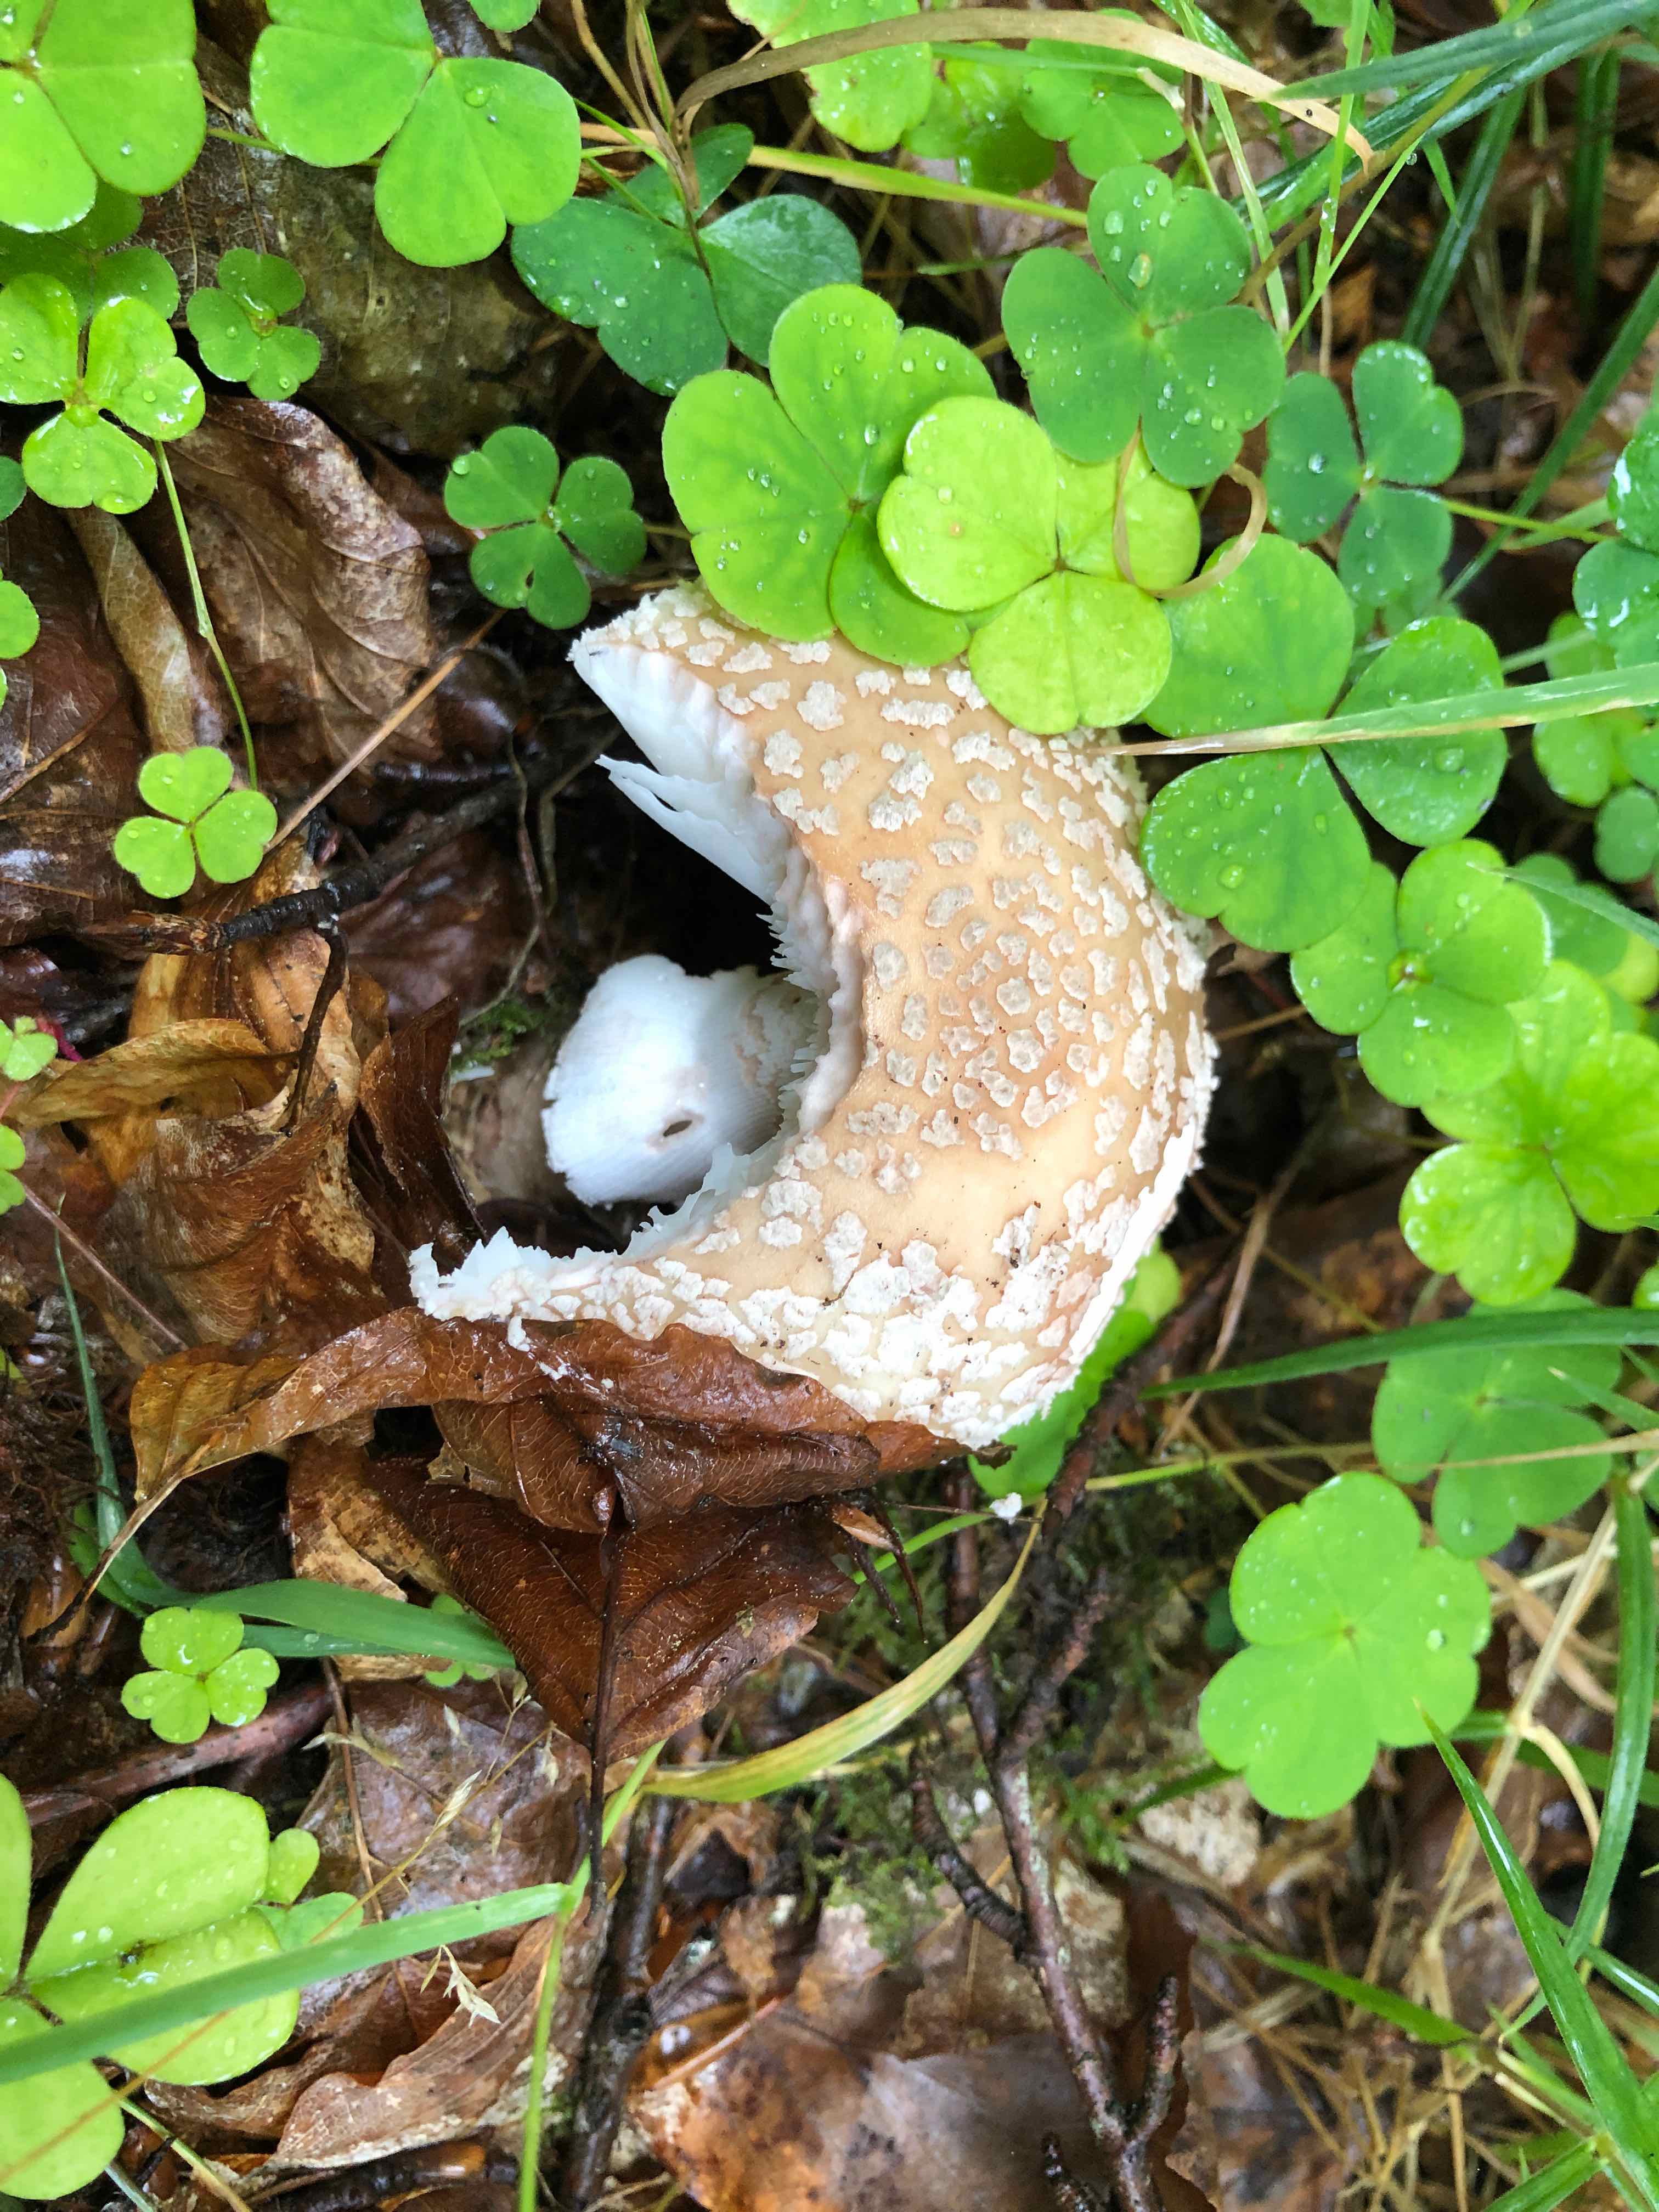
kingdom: Fungi
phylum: Basidiomycota
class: Agaricomycetes
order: Agaricales
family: Amanitaceae
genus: Amanita
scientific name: Amanita rubescens
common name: rødmende fluesvamp
